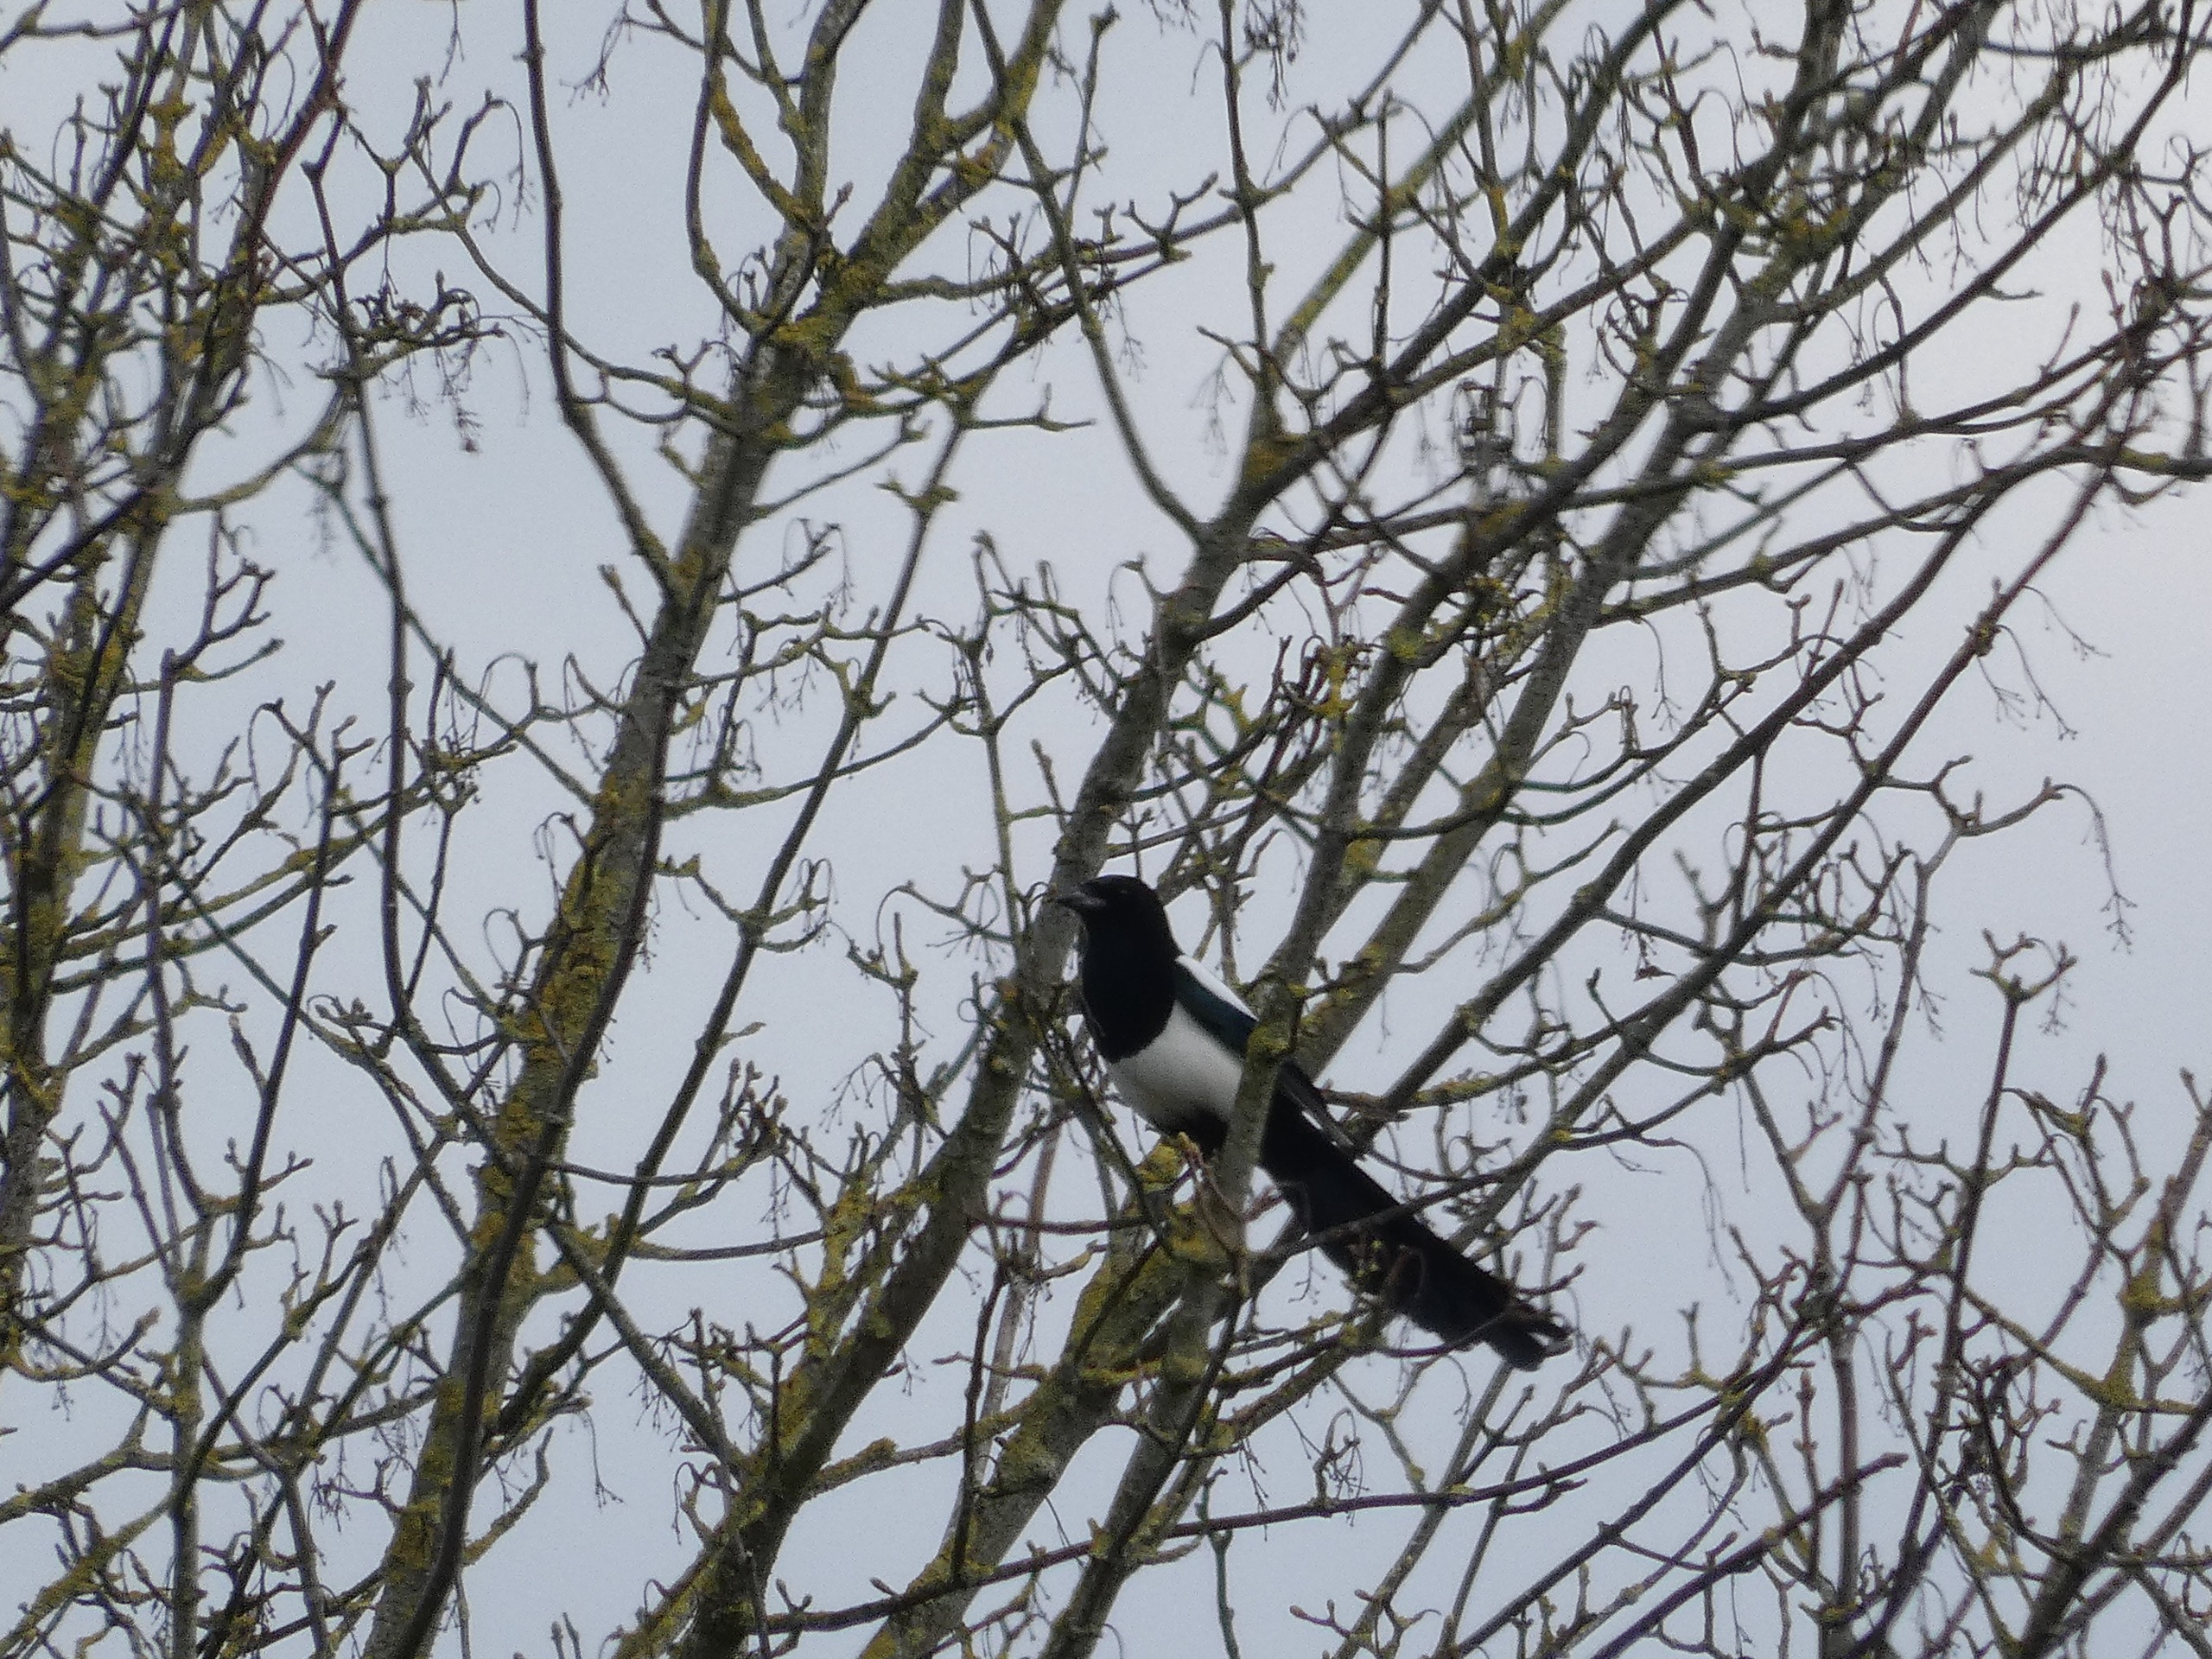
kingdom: Animalia
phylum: Chordata
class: Aves
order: Passeriformes
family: Corvidae
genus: Pica
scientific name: Pica pica
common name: Husskade
